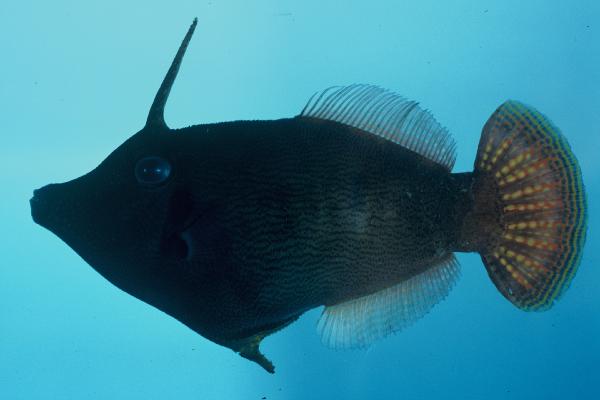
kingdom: Animalia
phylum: Chordata
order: Tetraodontiformes
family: Monacanthidae
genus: Pervagor
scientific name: Pervagor janthinosoma
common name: Blackbar filefish
